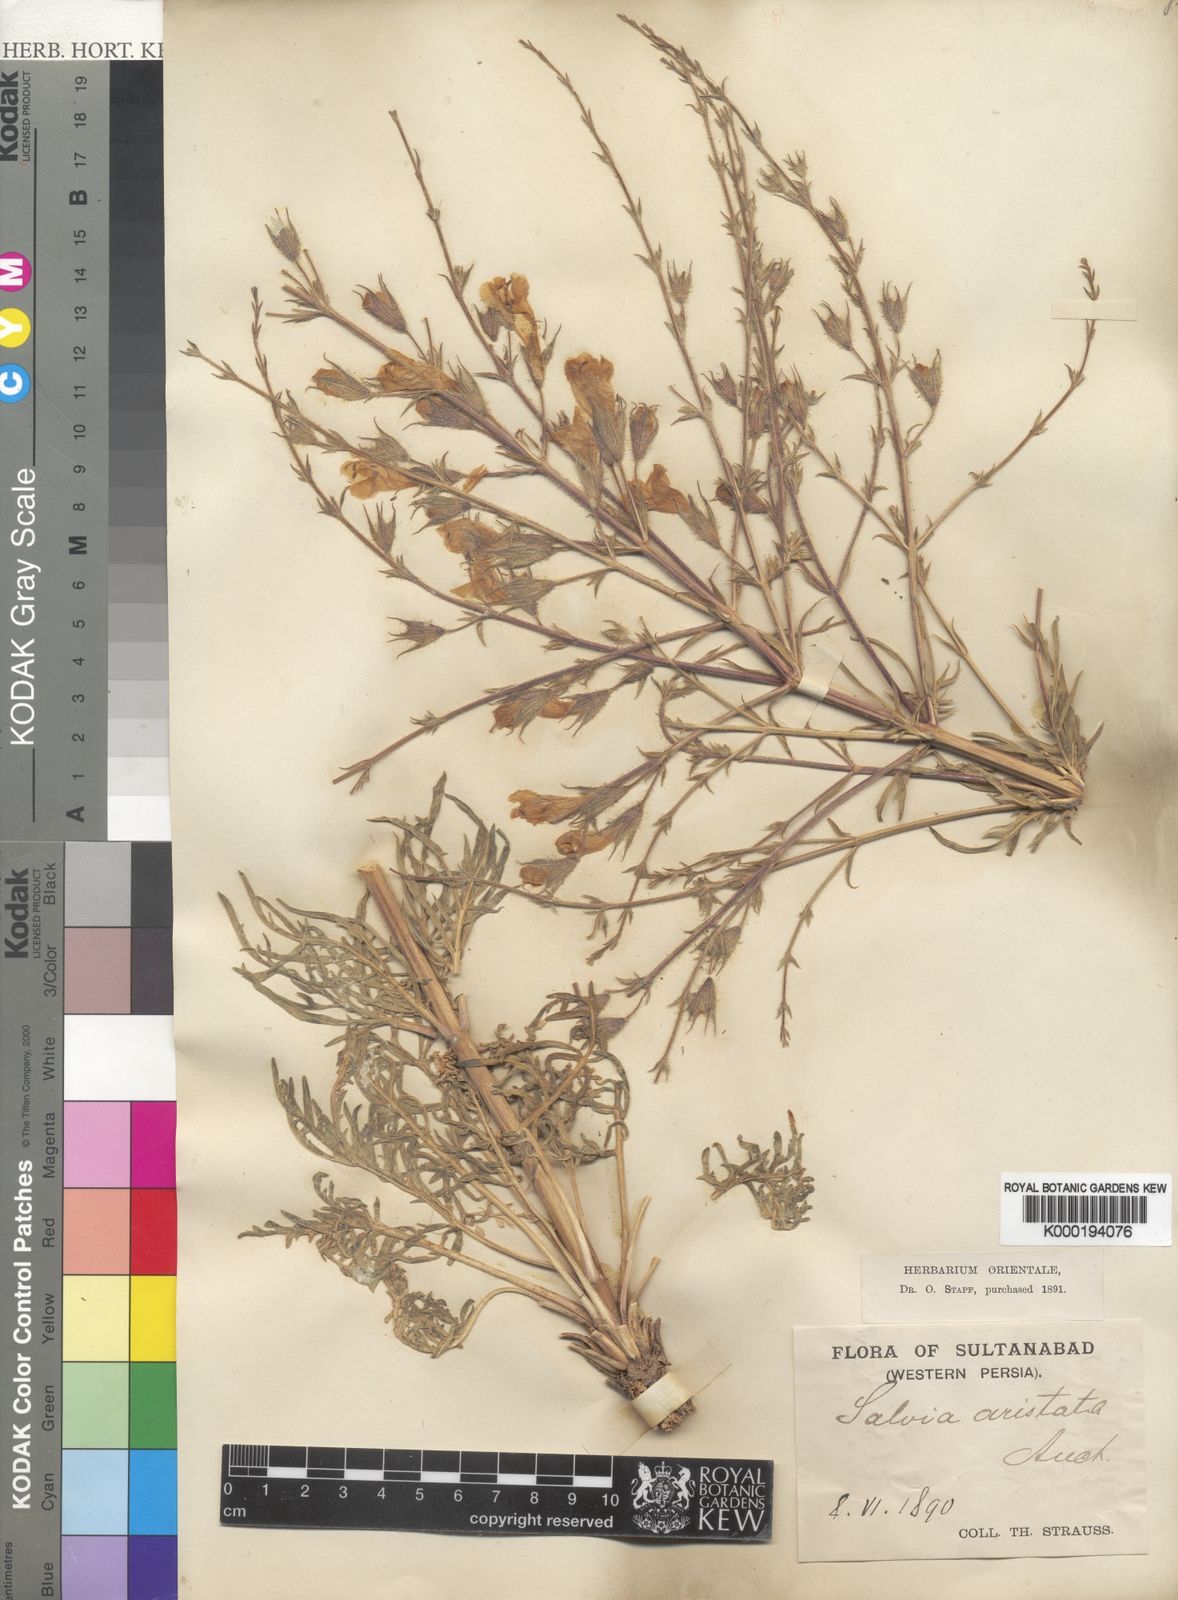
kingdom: Plantae
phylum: Tracheophyta
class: Magnoliopsida
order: Lamiales
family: Lamiaceae
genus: Salvia
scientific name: Salvia aristata
